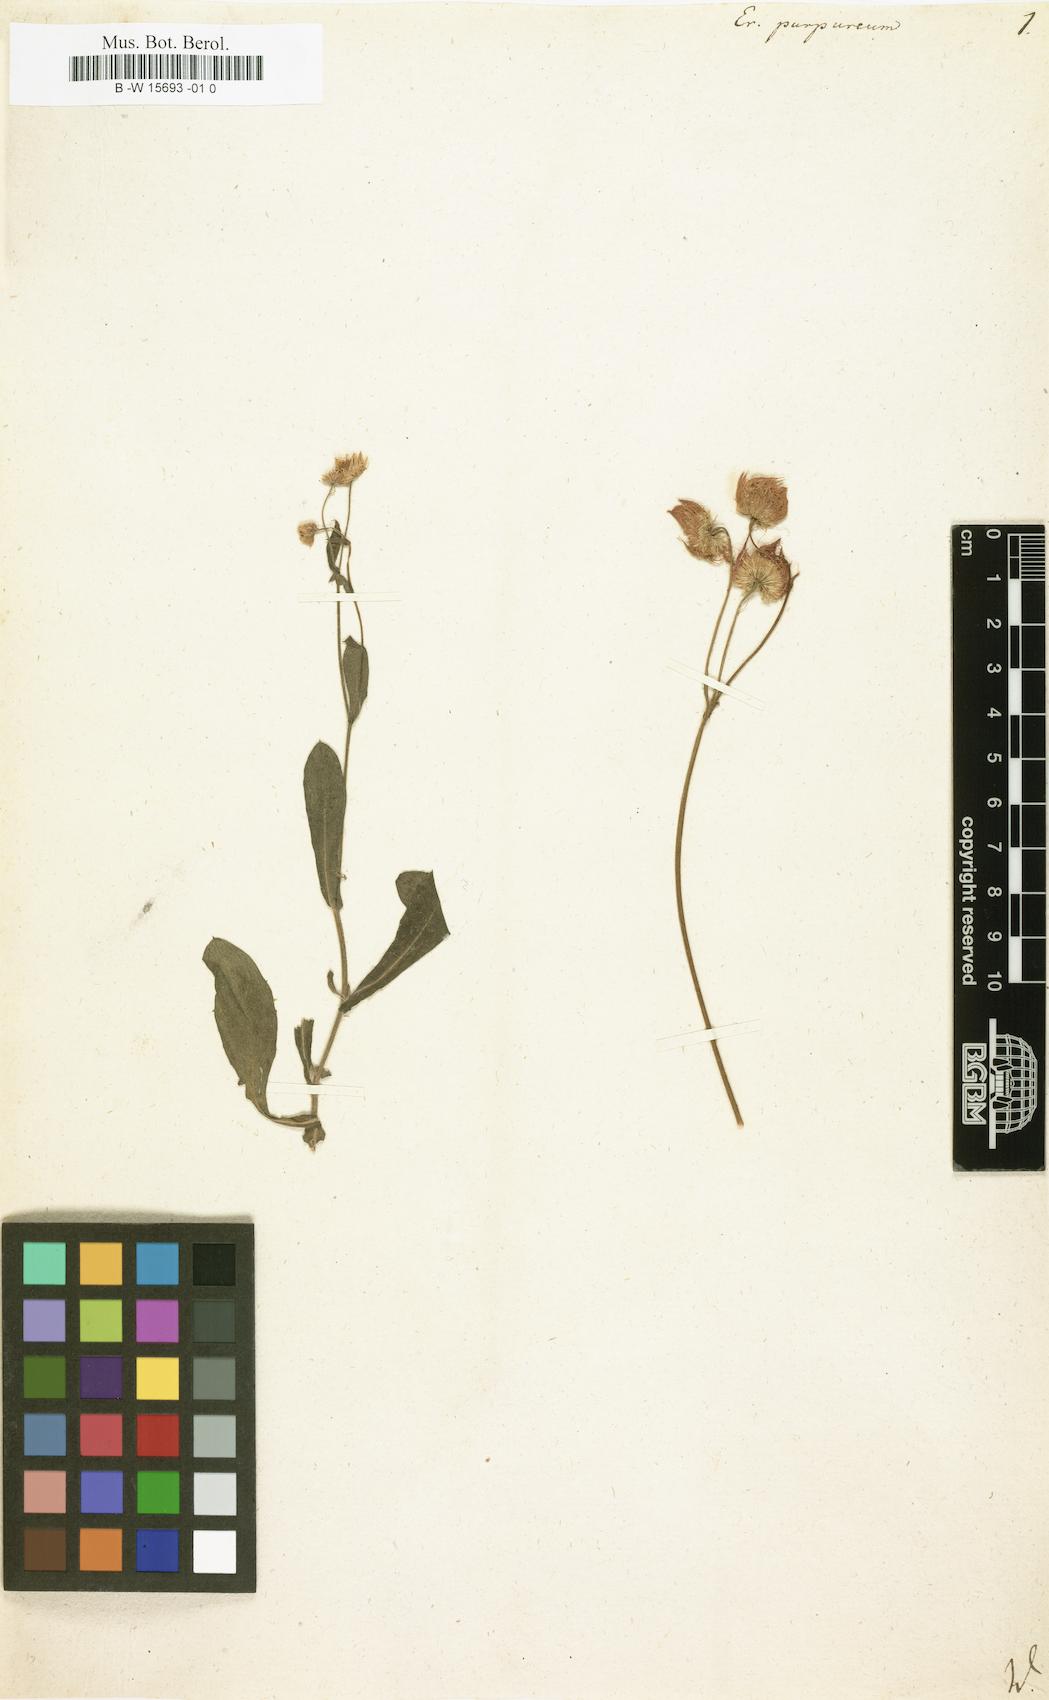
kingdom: Plantae
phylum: Tracheophyta
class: Magnoliopsida
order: Asterales
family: Asteraceae
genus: Erigeron
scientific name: Erigeron philadelphicus
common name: Robin's-plantain
